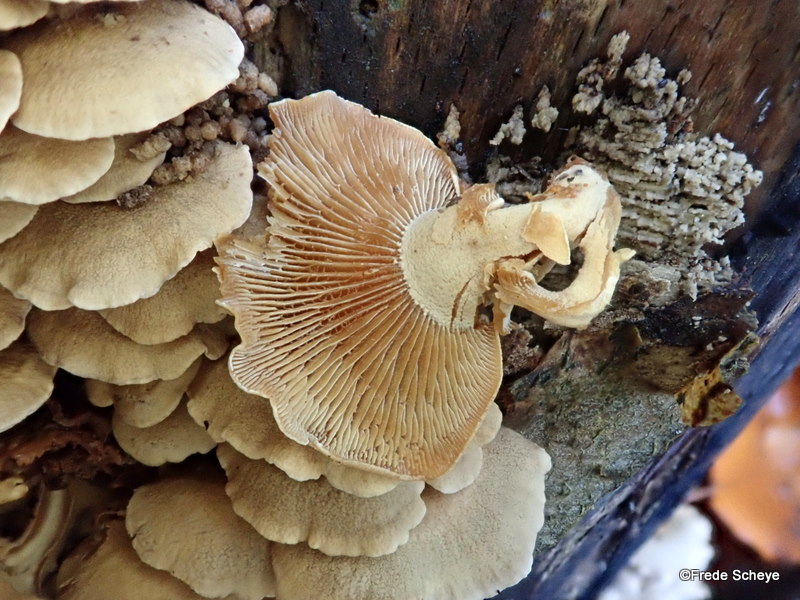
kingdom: Fungi
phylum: Basidiomycota
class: Agaricomycetes
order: Agaricales
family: Mycenaceae
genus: Panellus
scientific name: Panellus stipticus
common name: kliddet epaulethat
